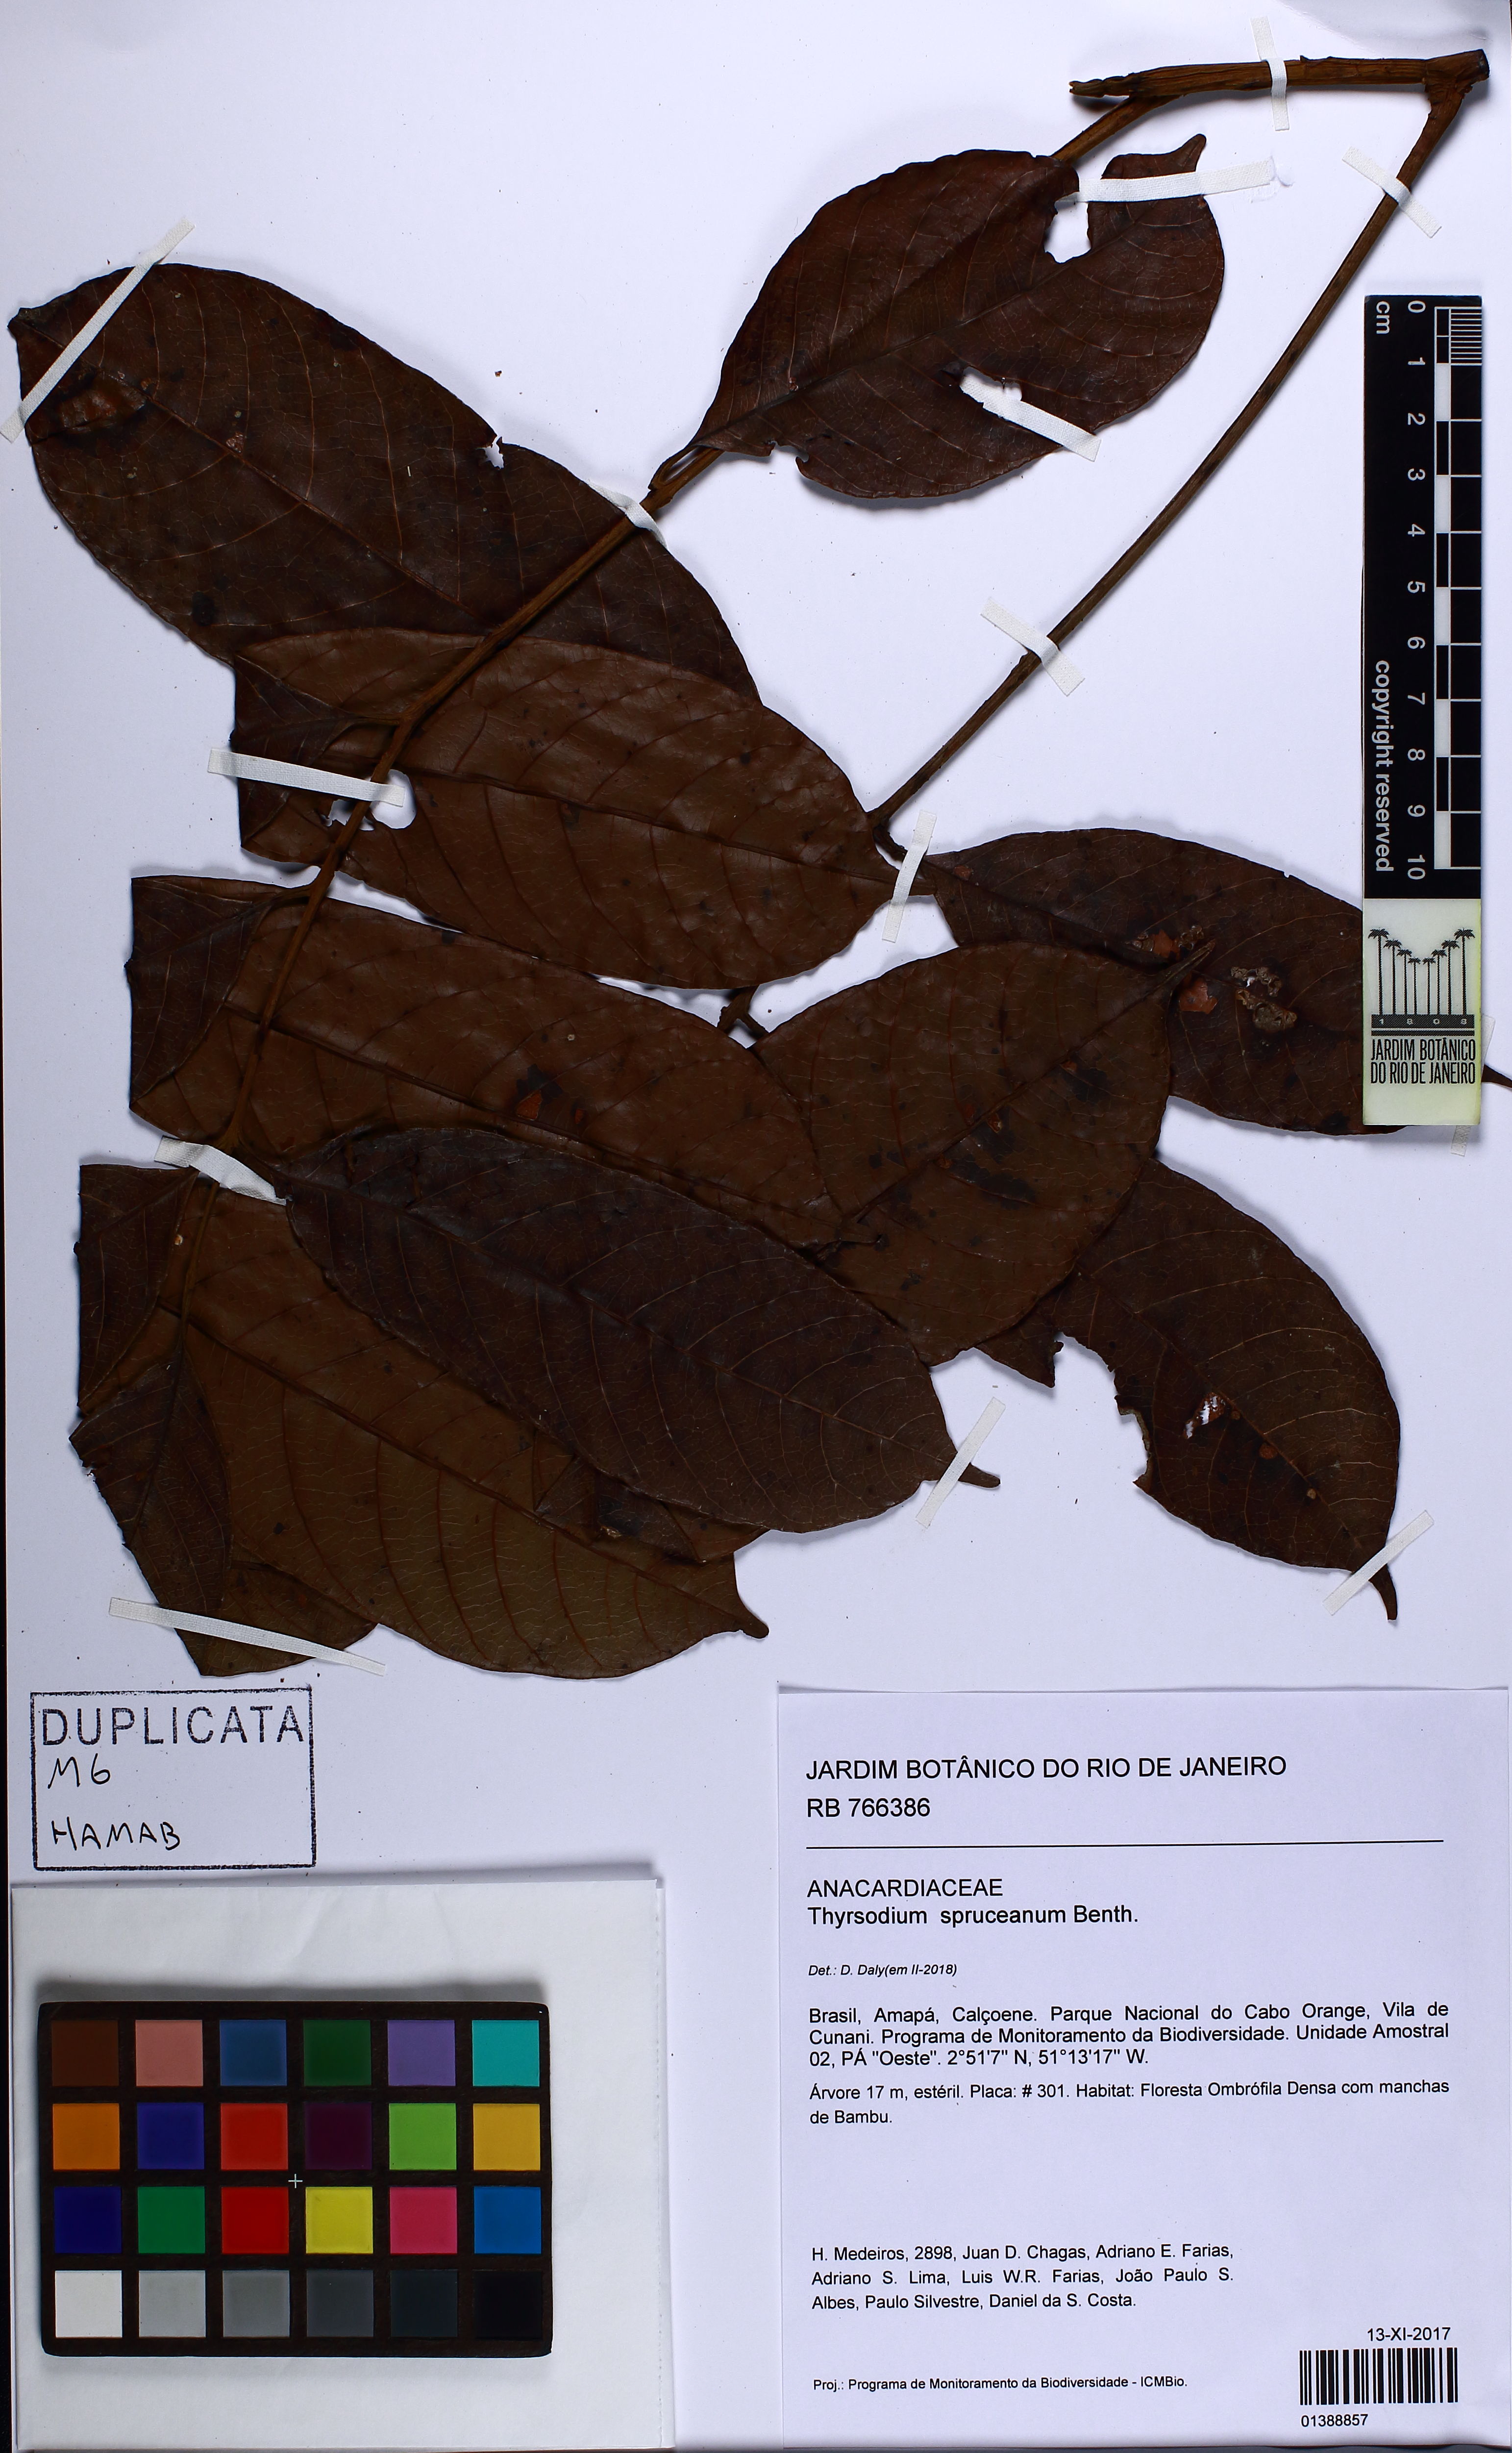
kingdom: Plantae
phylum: Tracheophyta
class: Magnoliopsida
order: Sapindales
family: Anacardiaceae
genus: Thyrsodium
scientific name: Thyrsodium spruceanum
